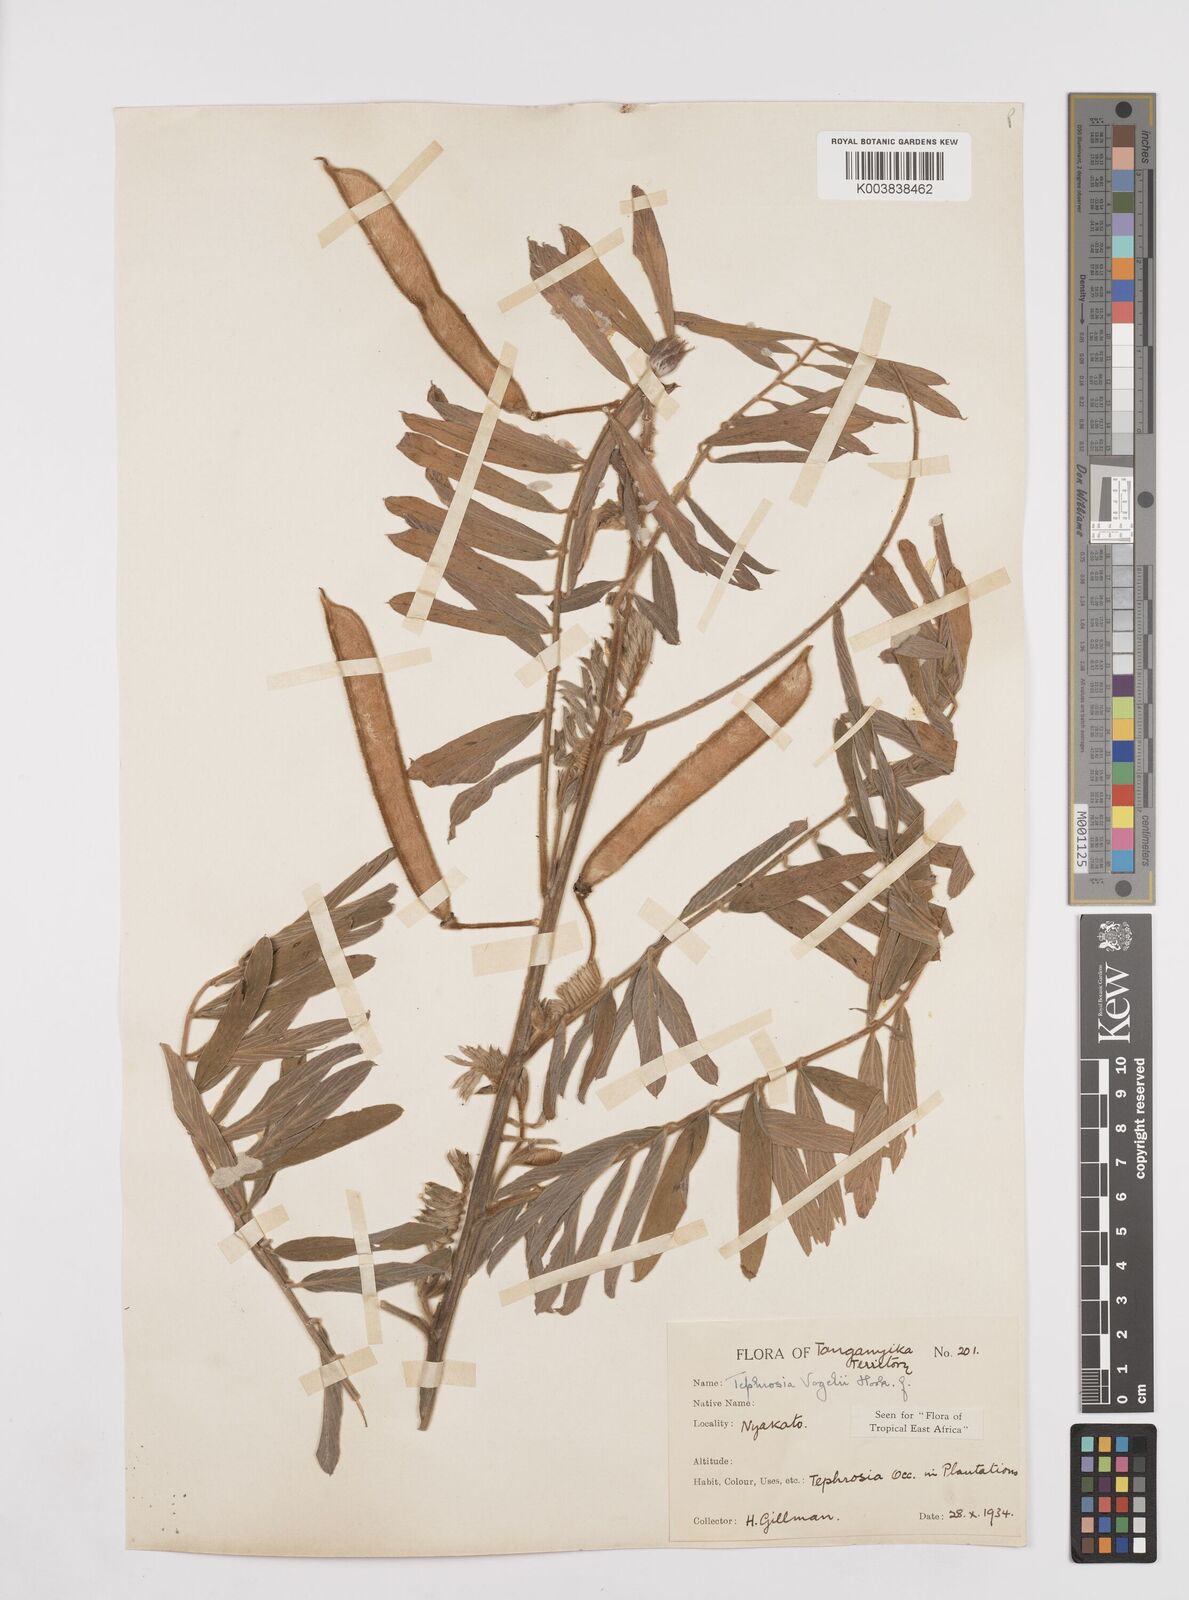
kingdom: Plantae
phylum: Tracheophyta
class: Magnoliopsida
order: Fabales
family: Fabaceae
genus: Tephrosia
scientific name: Tephrosia vogelii
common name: Vogel tephrosia
